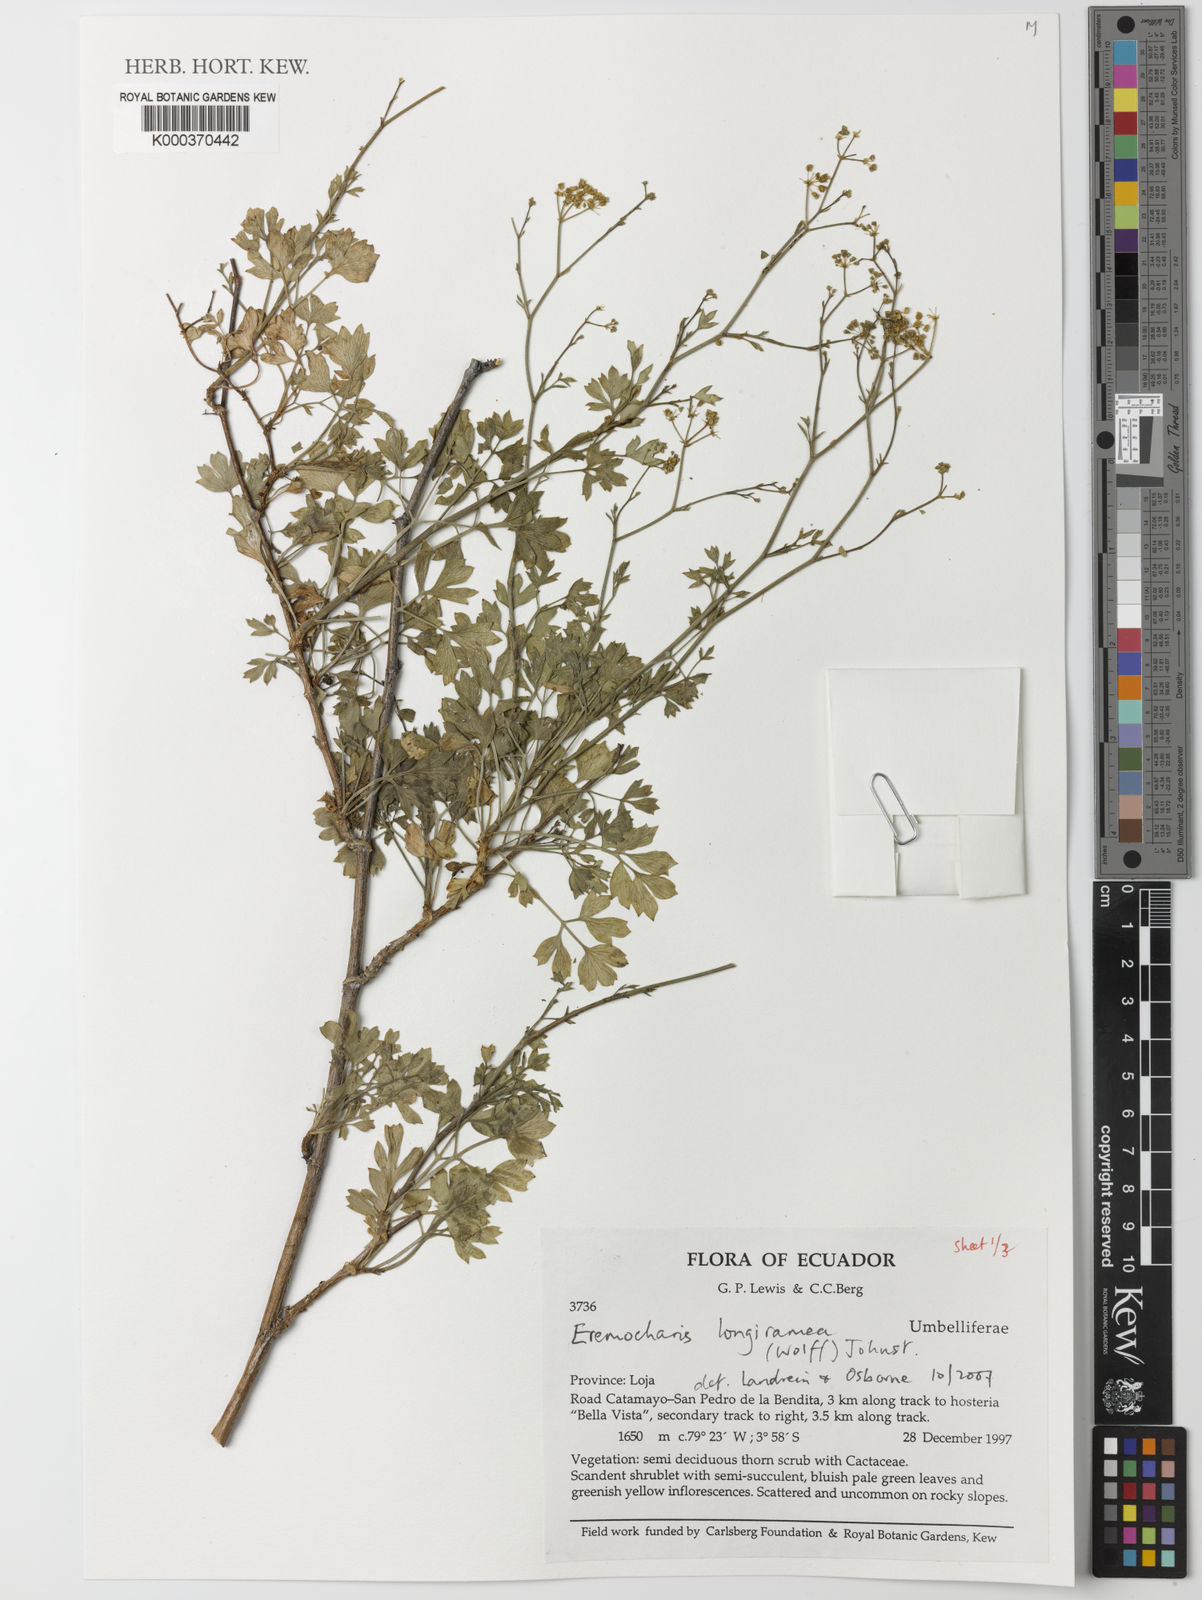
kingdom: Plantae
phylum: Tracheophyta
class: Magnoliopsida
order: Apiales
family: Apiaceae
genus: Eremocharis
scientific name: Eremocharis longiramea
